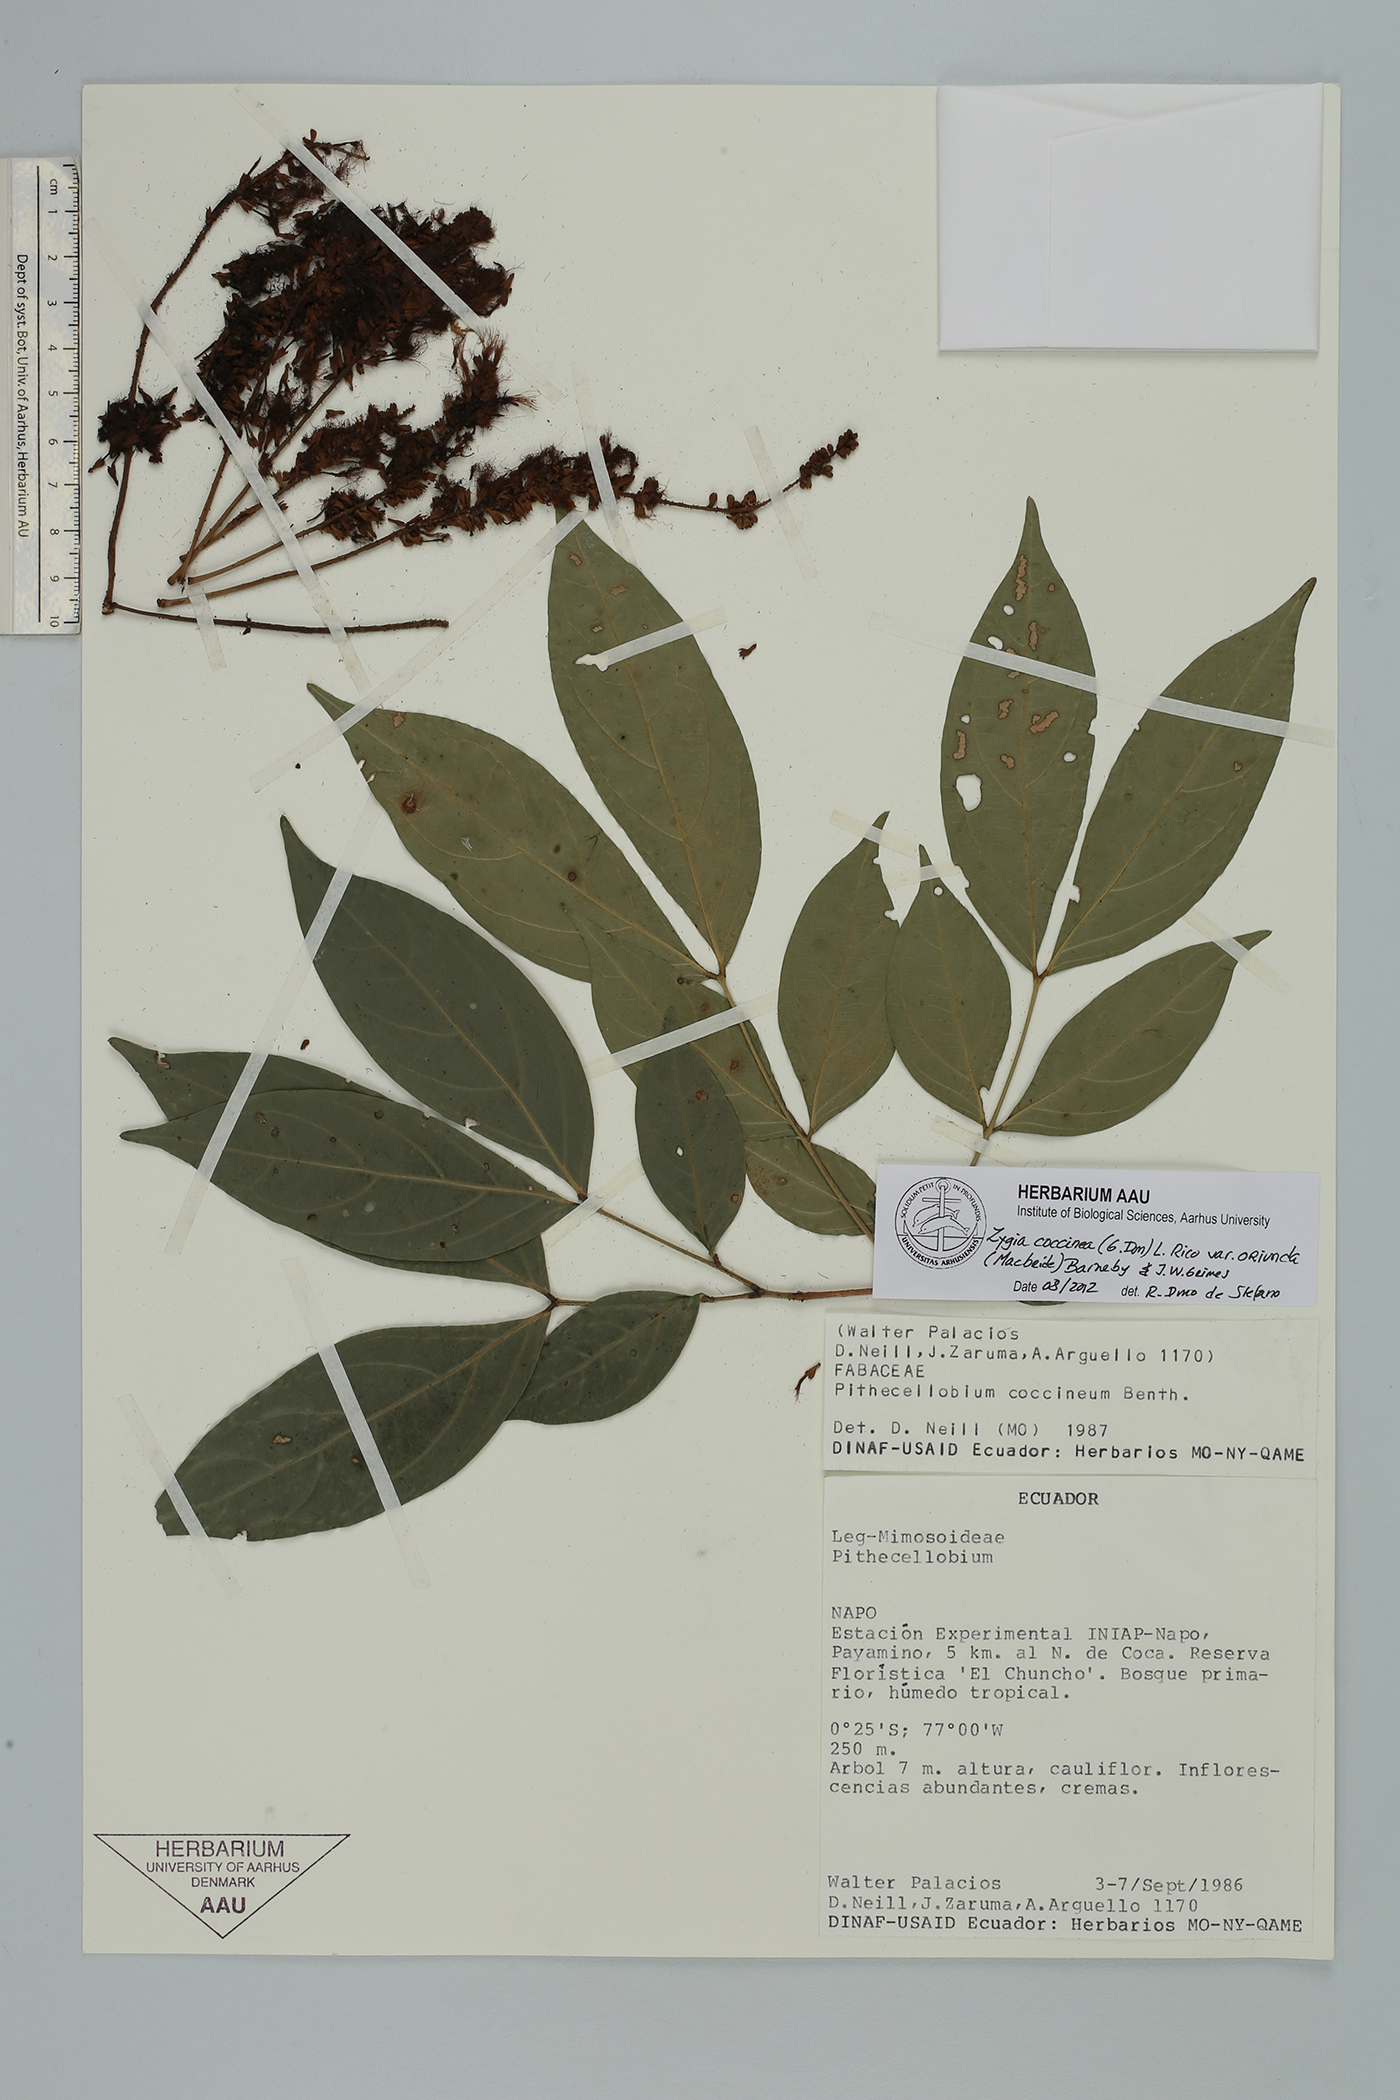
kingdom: Plantae
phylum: Tracheophyta
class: Magnoliopsida
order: Fabales
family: Fabaceae
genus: Zygia
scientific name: Zygia coccinea
